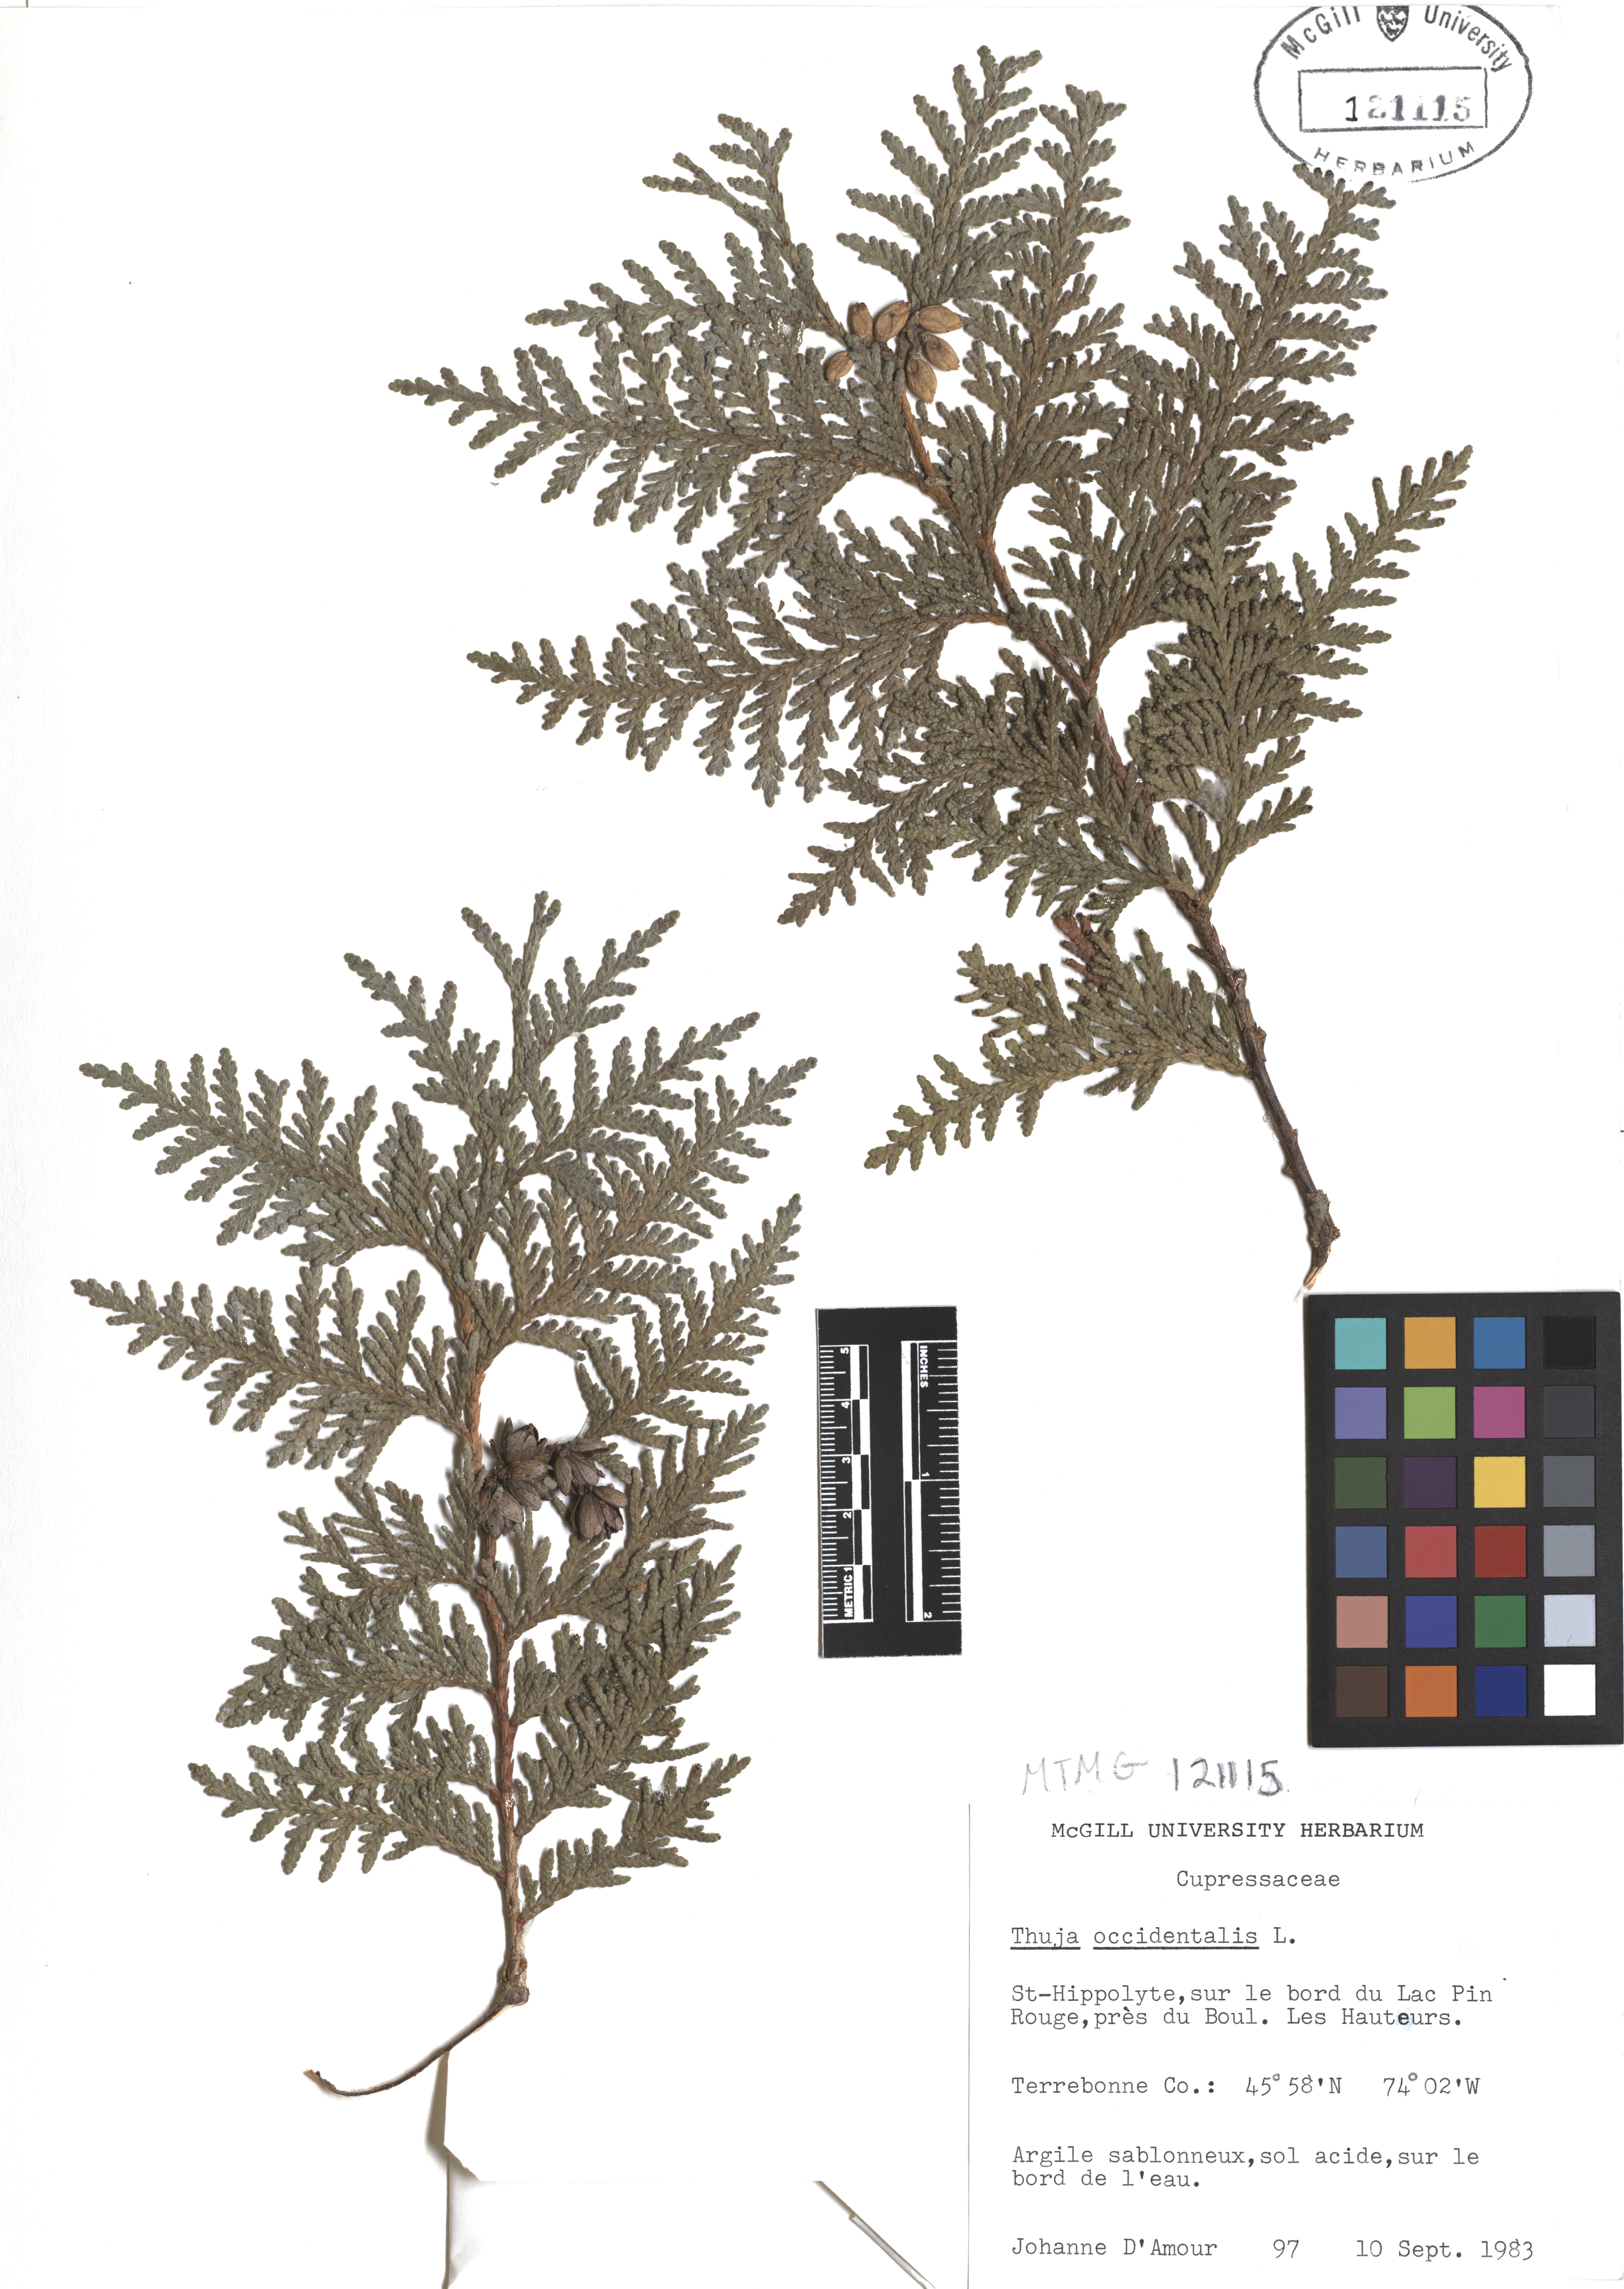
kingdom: Plantae
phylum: Tracheophyta
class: Pinopsida
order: Pinales
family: Cupressaceae
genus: Thuja
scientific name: Thuja occidentalis
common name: Northern white-cedar
